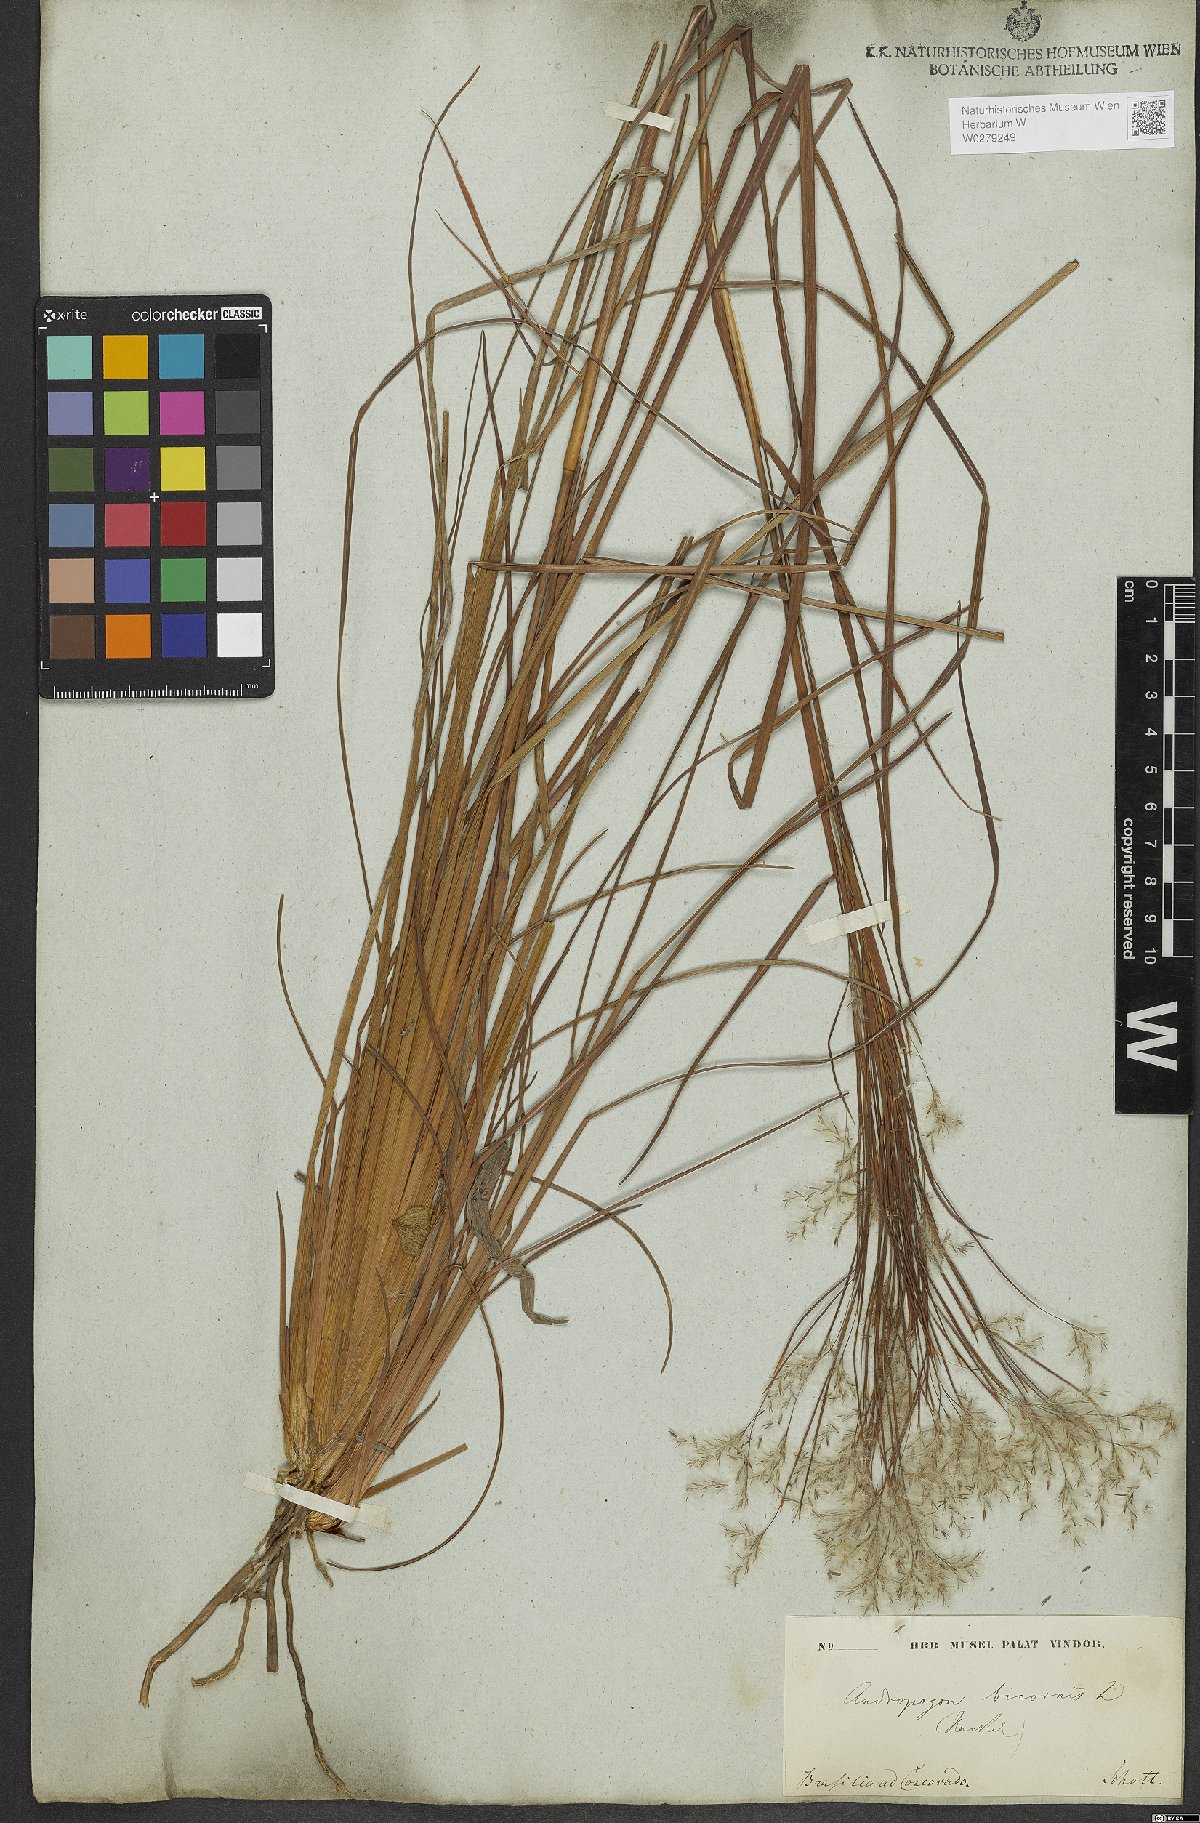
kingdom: Plantae
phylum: Tracheophyta
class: Liliopsida
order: Poales
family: Poaceae
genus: Andropogon
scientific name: Andropogon bicornis
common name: West indian foxtail grass
